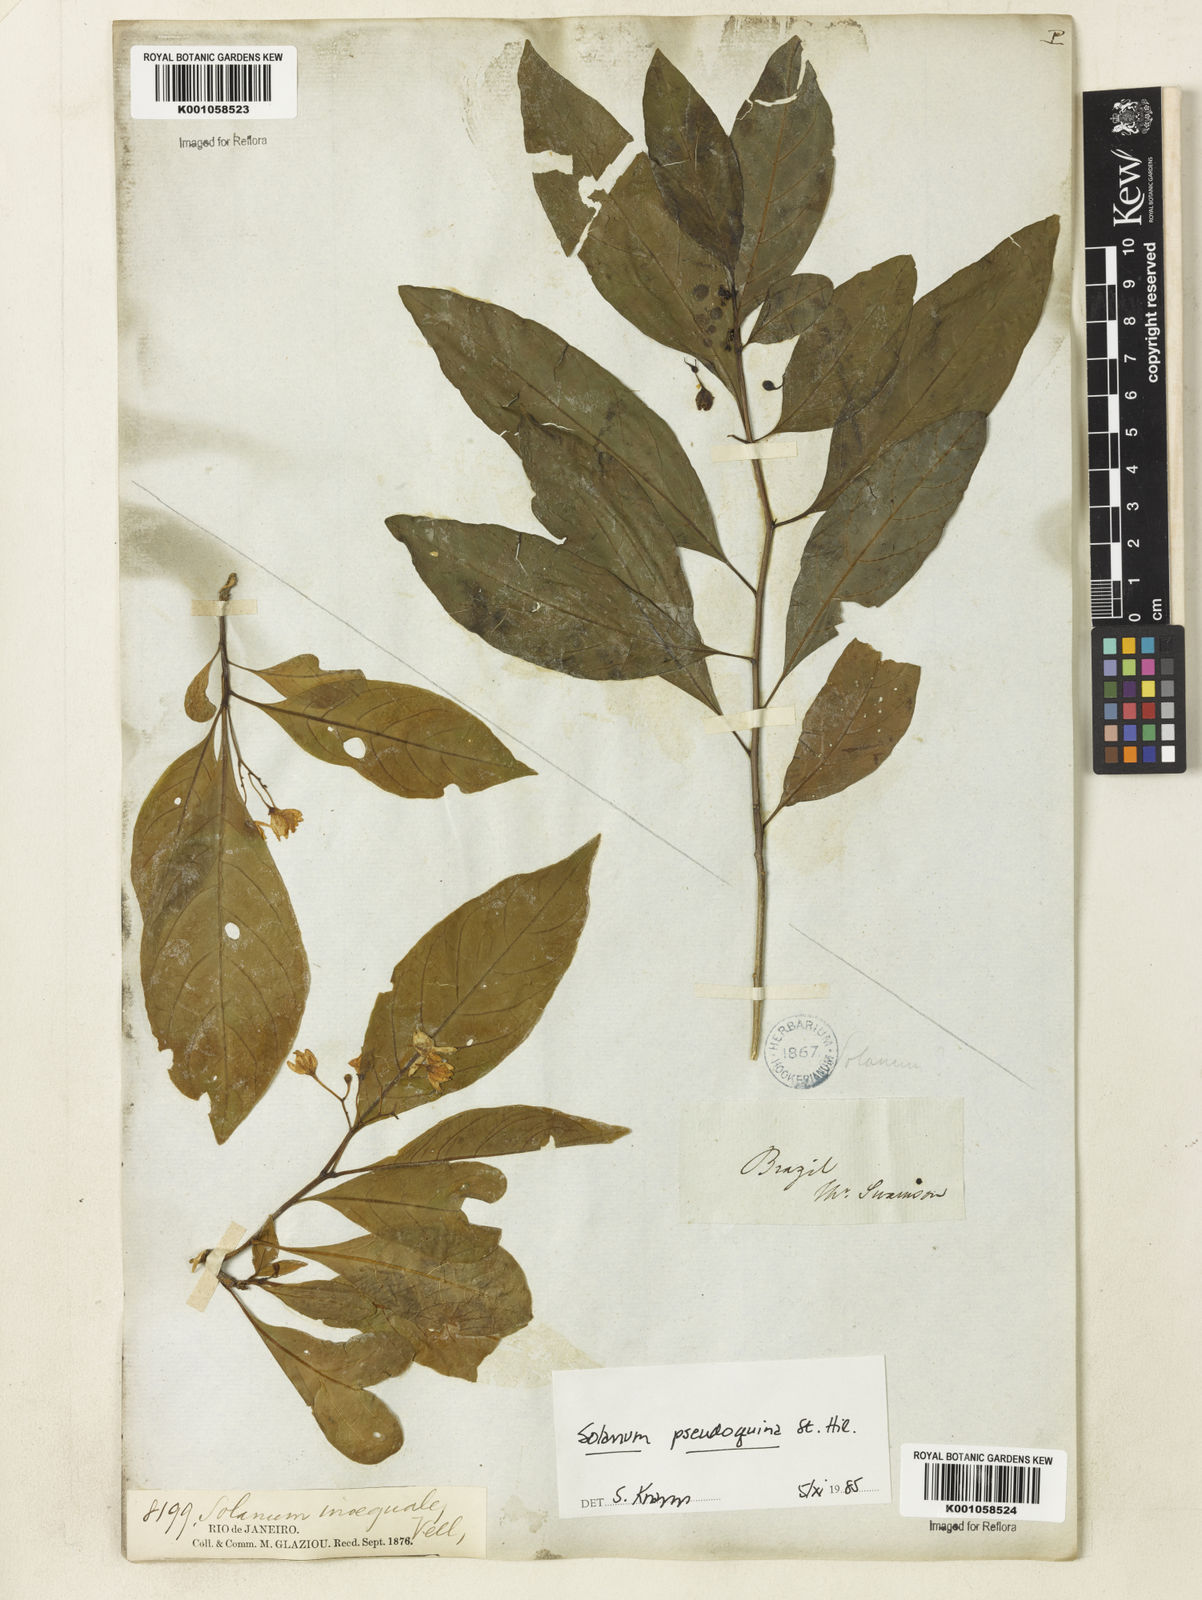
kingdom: Plantae
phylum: Tracheophyta
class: Magnoliopsida
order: Solanales
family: Solanaceae
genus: Solanum
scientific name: Solanum pseudoquina
